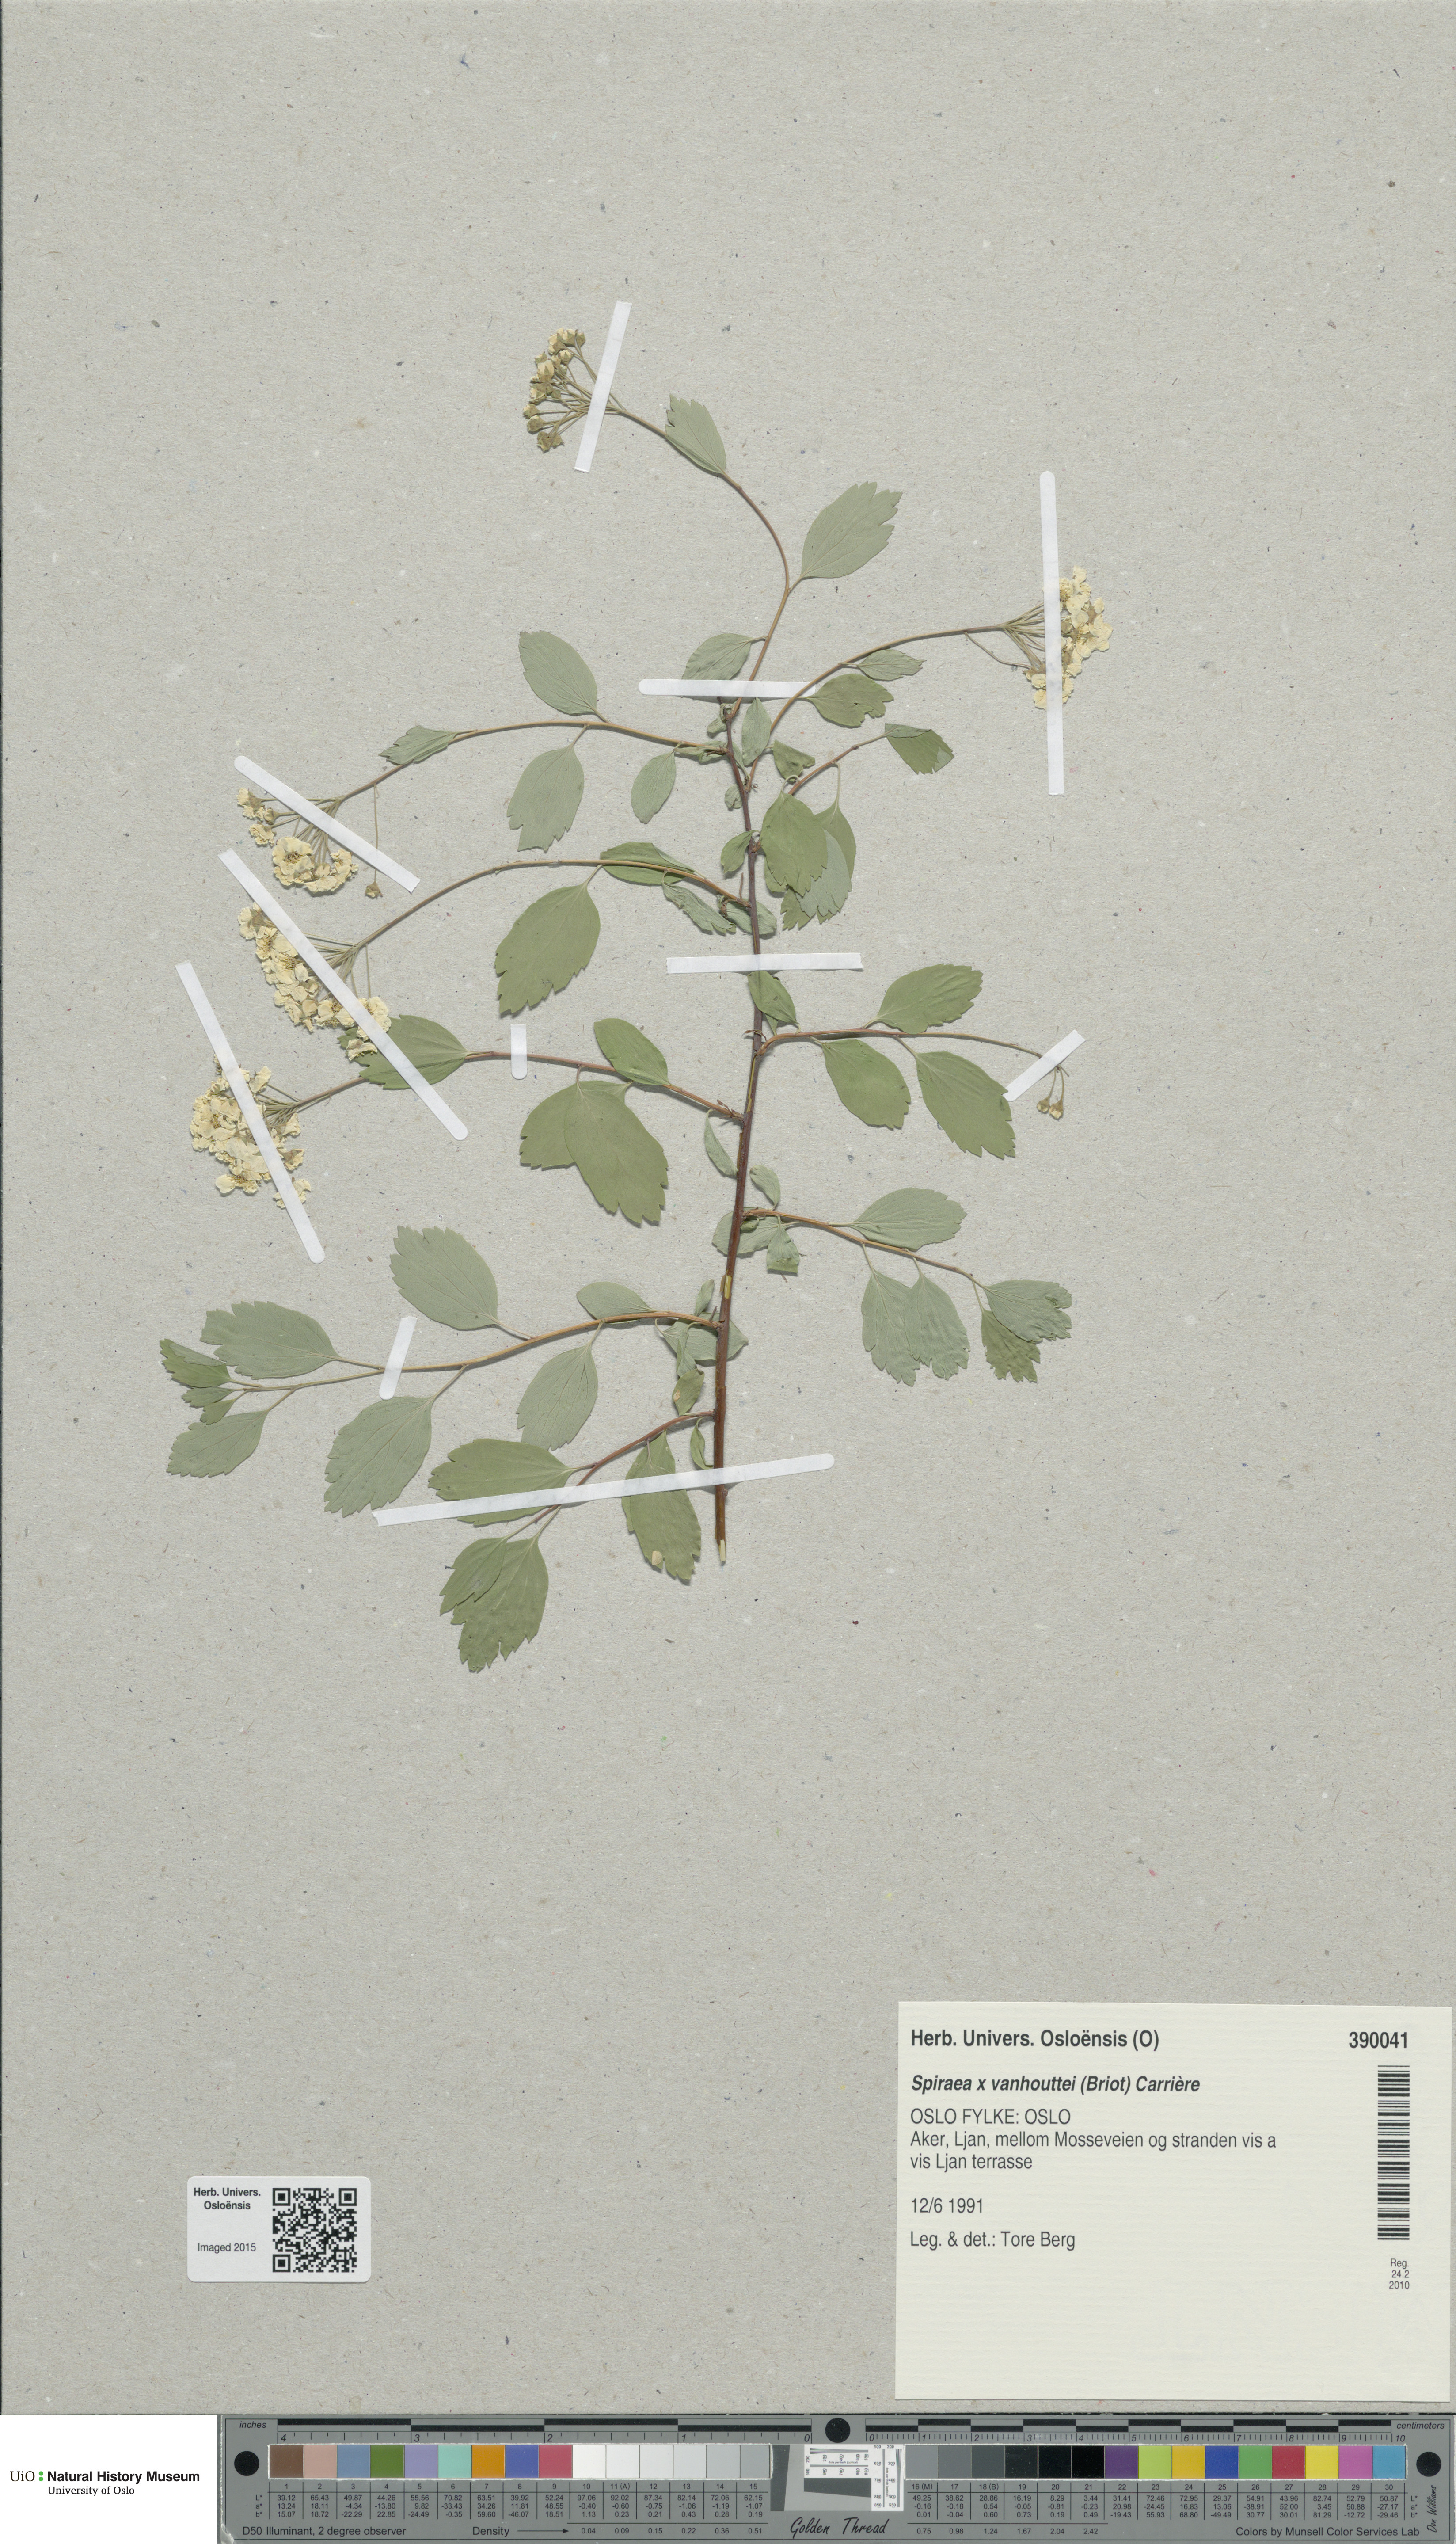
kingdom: Plantae
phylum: Tracheophyta
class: Magnoliopsida
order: Rosales
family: Rosaceae
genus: Spiraea
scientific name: Spiraea vanhouttei
